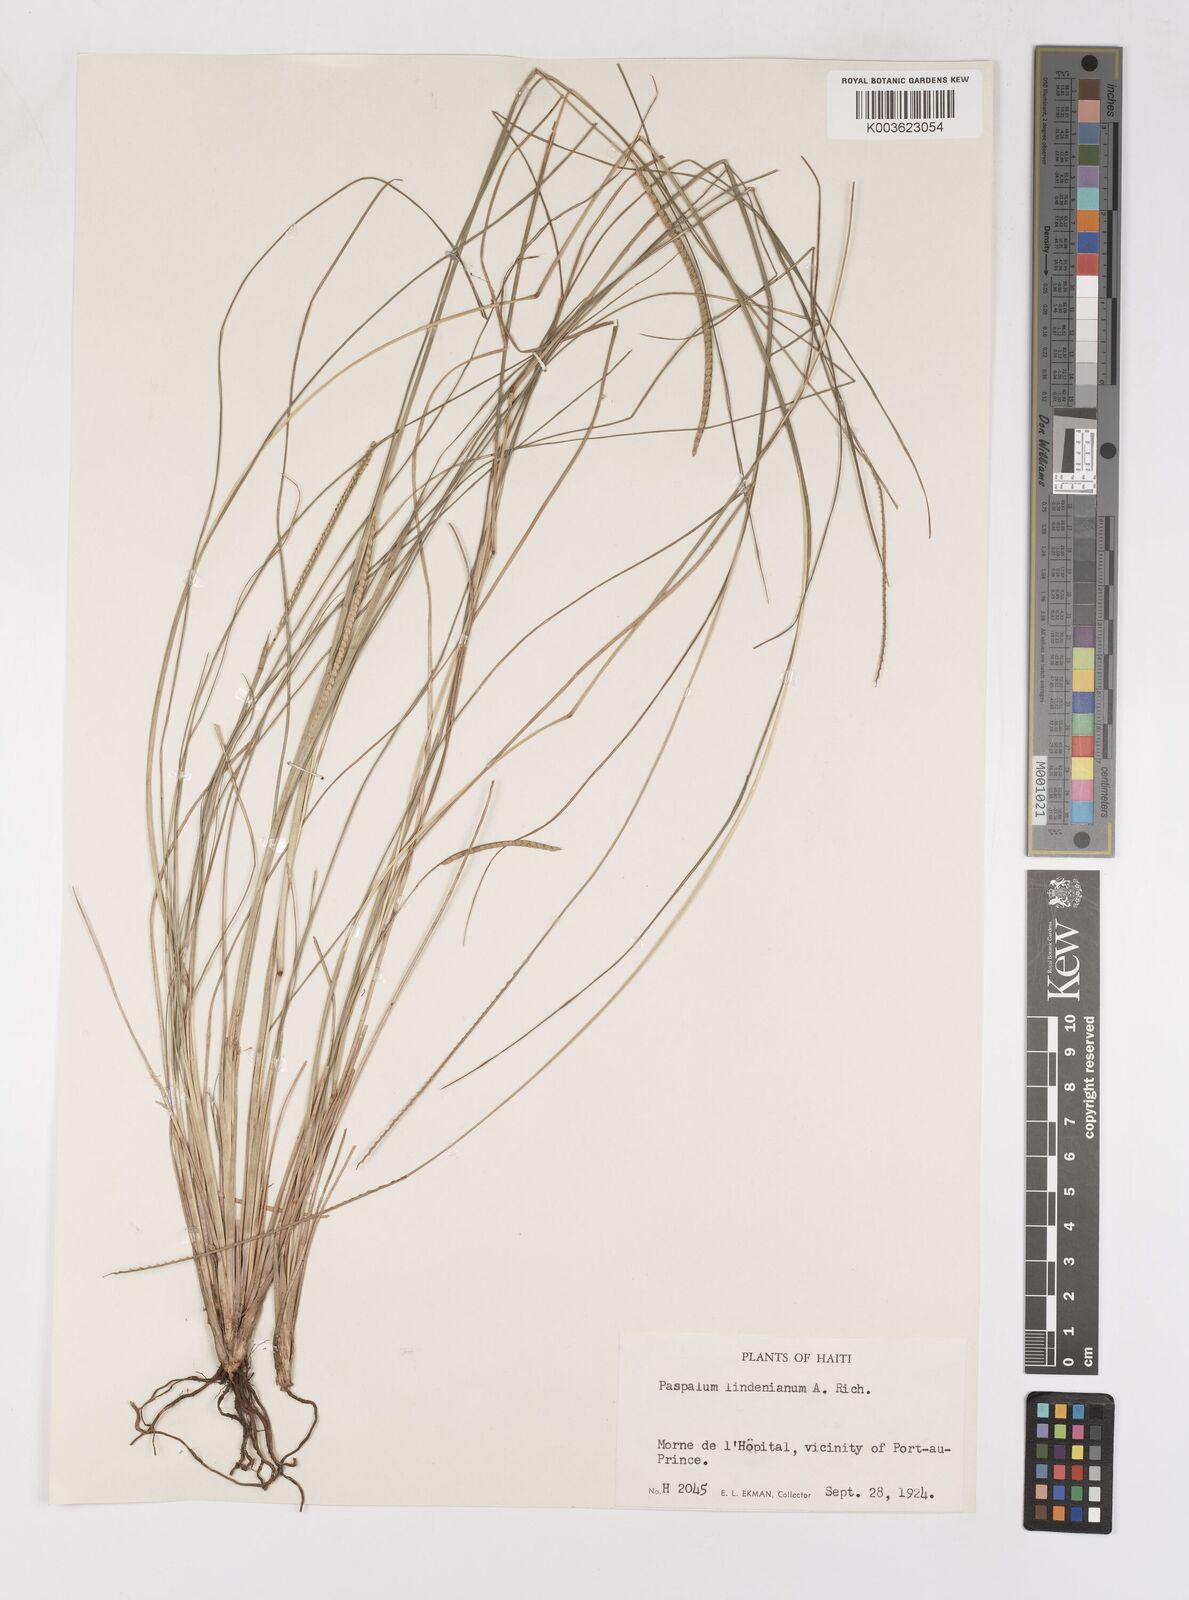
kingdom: Plantae
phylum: Tracheophyta
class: Liliopsida
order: Poales
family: Poaceae
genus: Paspalum
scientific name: Paspalum lindenianum
